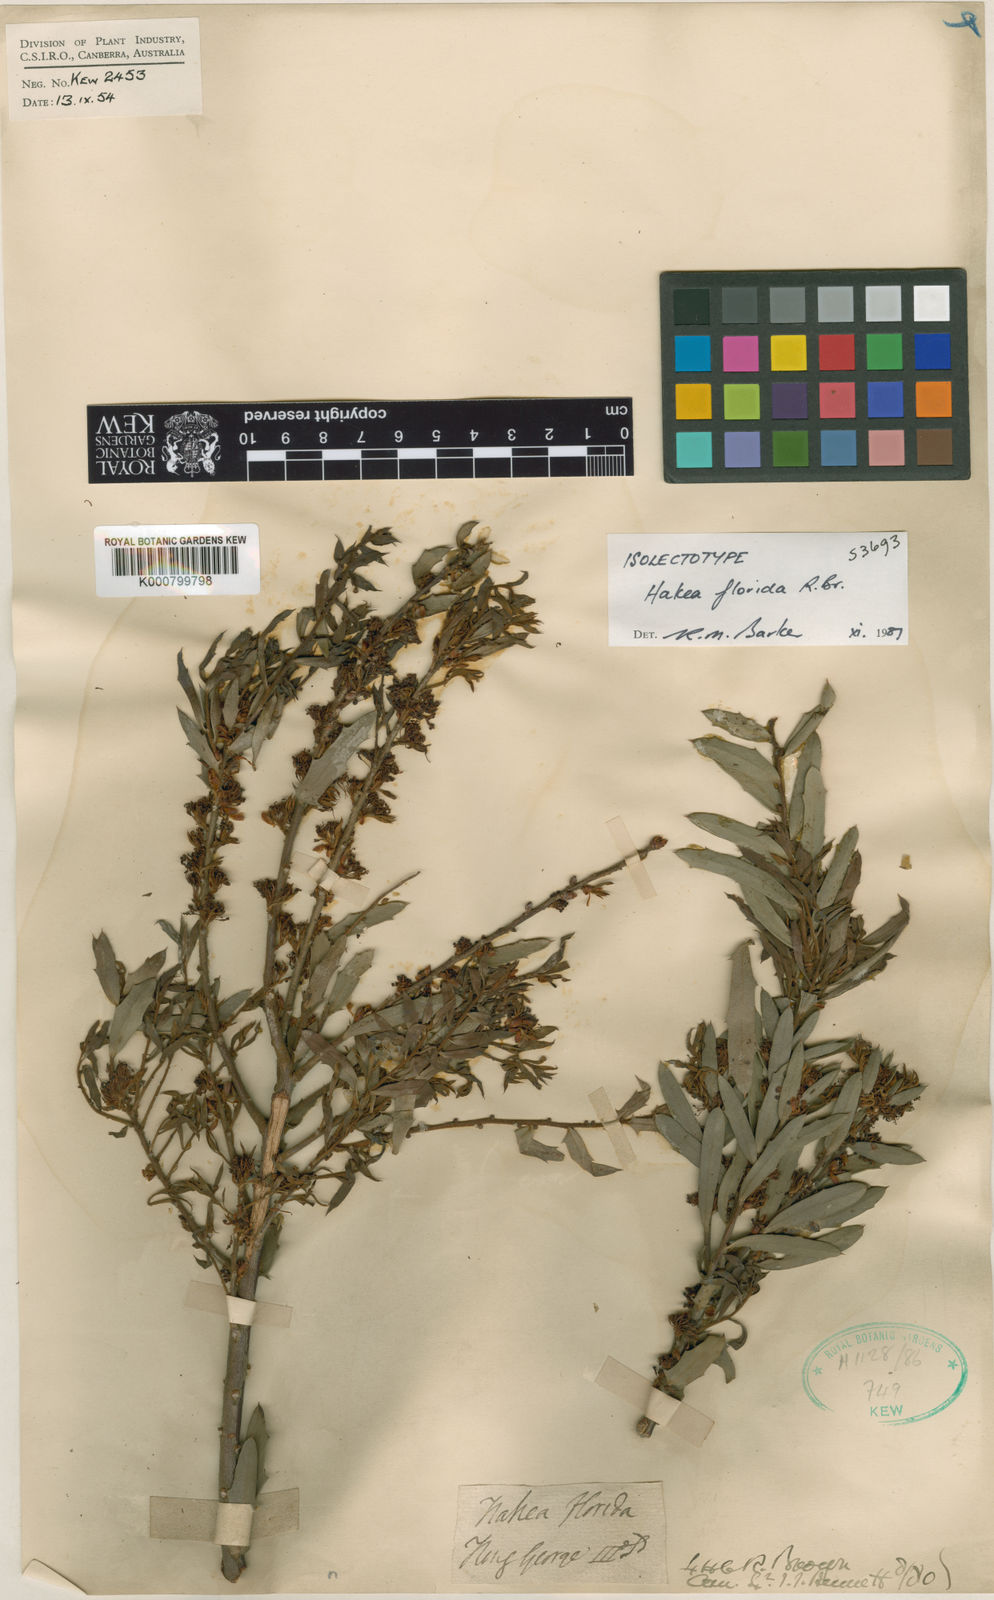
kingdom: Plantae
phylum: Tracheophyta
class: Magnoliopsida
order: Proteales
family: Proteaceae
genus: Hakea
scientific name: Hakea florida
